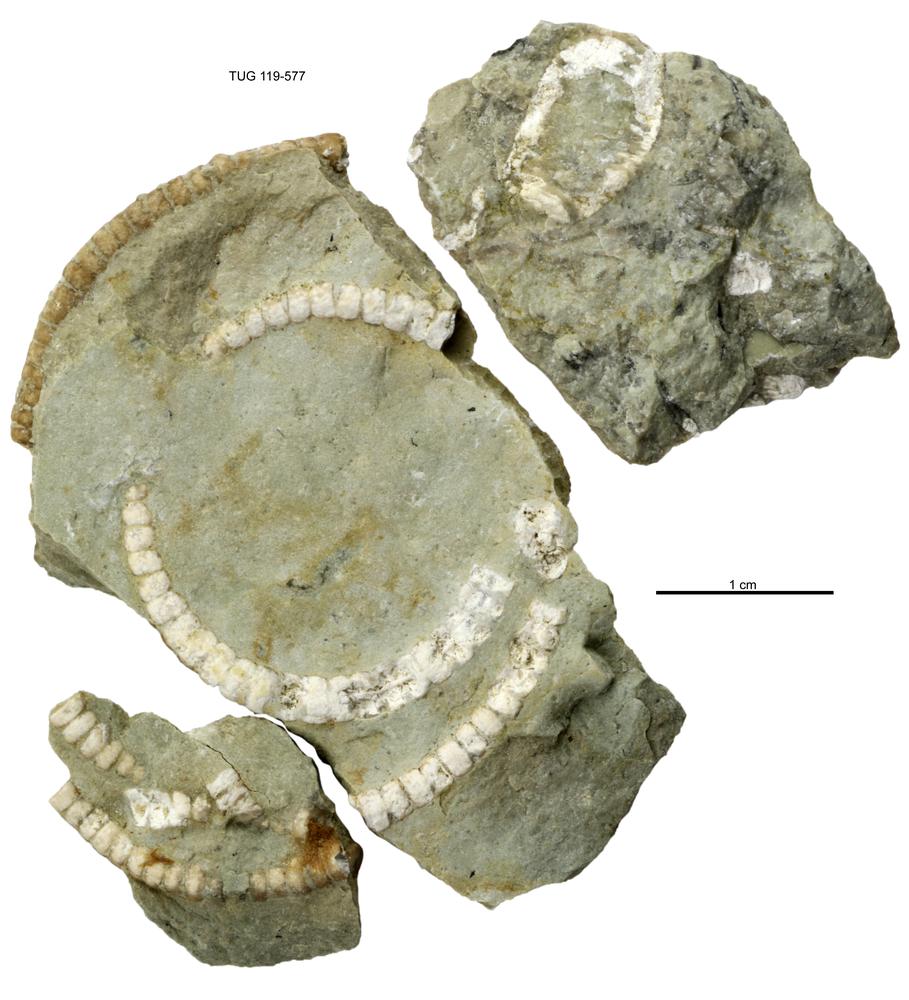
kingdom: Animalia
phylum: Echinodermata
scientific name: Echinodermata
